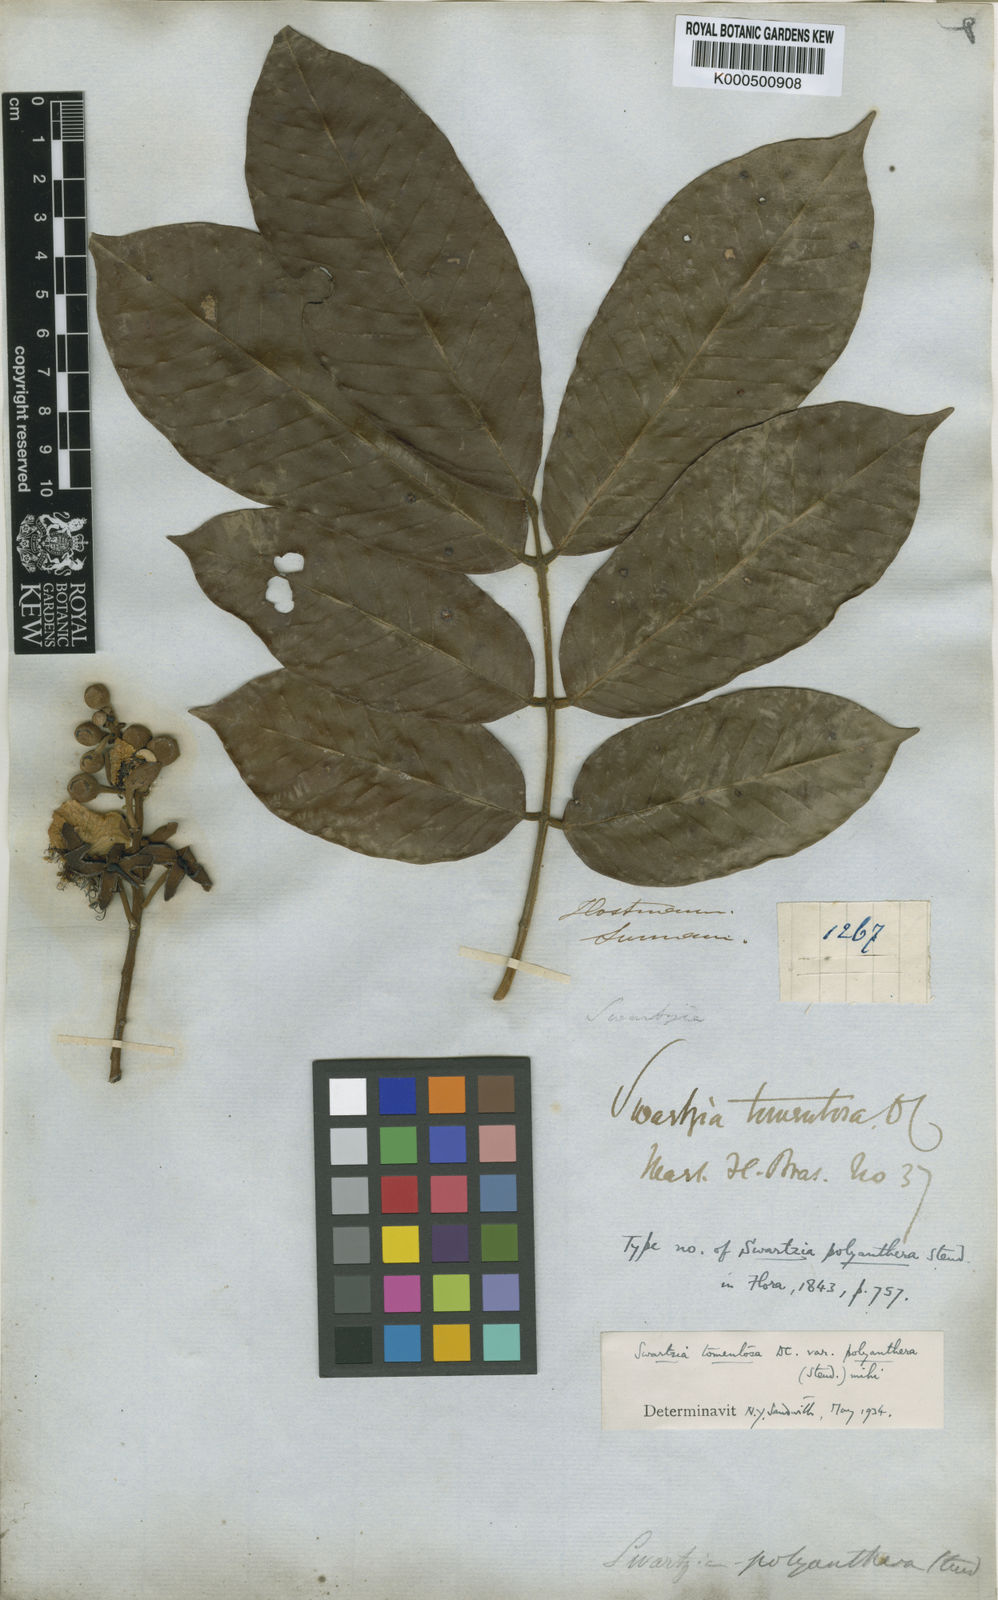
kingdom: Plantae
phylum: Tracheophyta
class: Magnoliopsida
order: Fabales
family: Fabaceae
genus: Swartzia
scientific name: Swartzia panacoco
